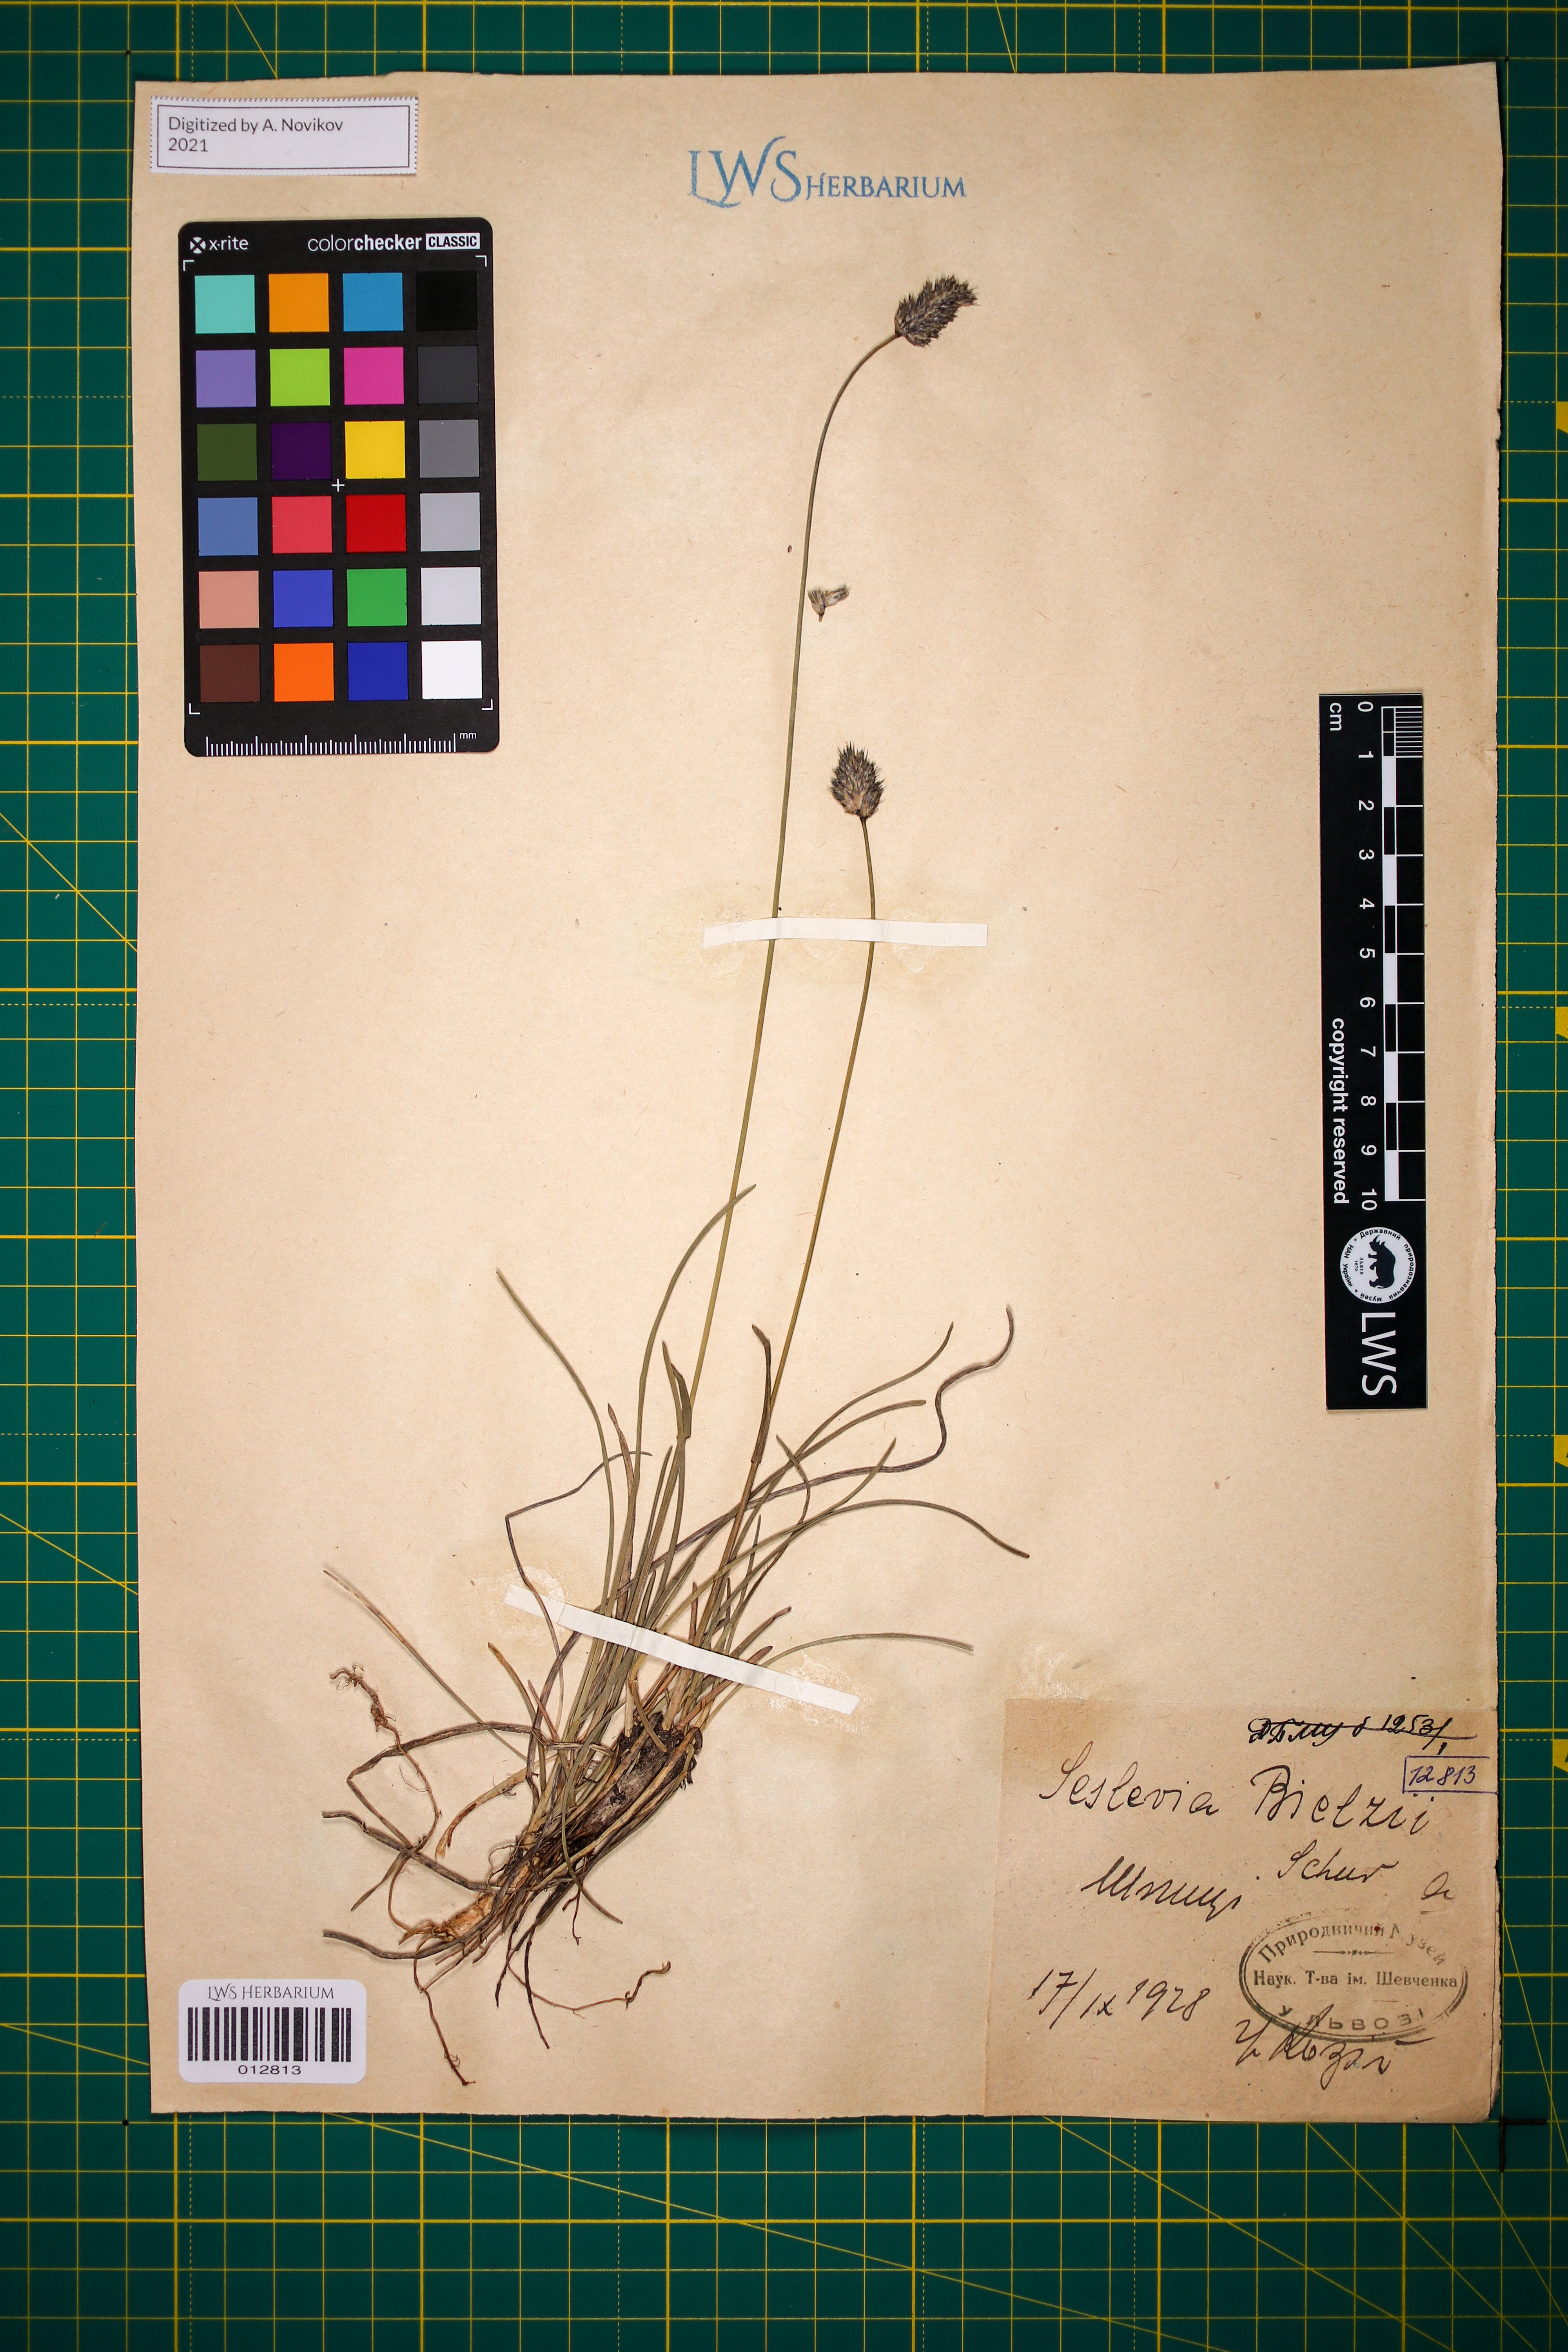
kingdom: Plantae
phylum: Tracheophyta
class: Liliopsida
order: Poales
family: Poaceae
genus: Sesleria
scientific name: Sesleria bielzii
